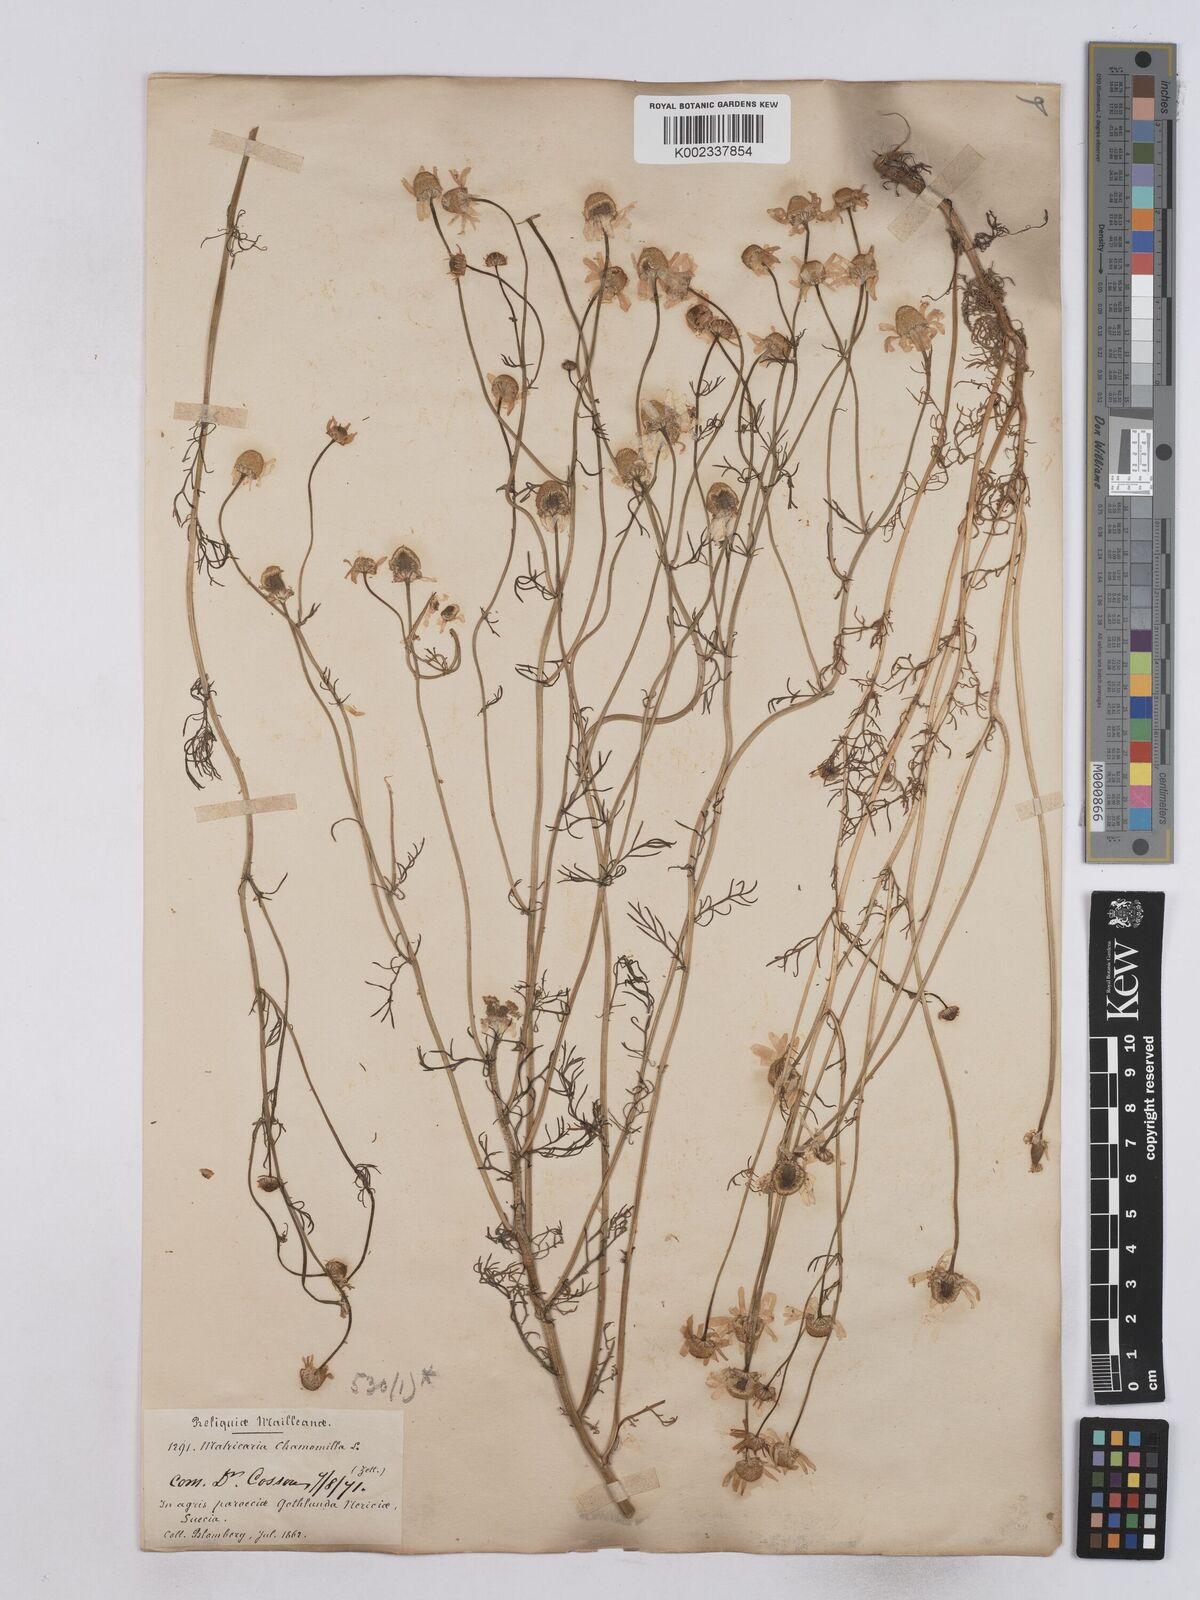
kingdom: Plantae
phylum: Tracheophyta
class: Magnoliopsida
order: Asterales
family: Asteraceae
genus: Matricaria
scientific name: Matricaria chamomilla
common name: Scented mayweed
